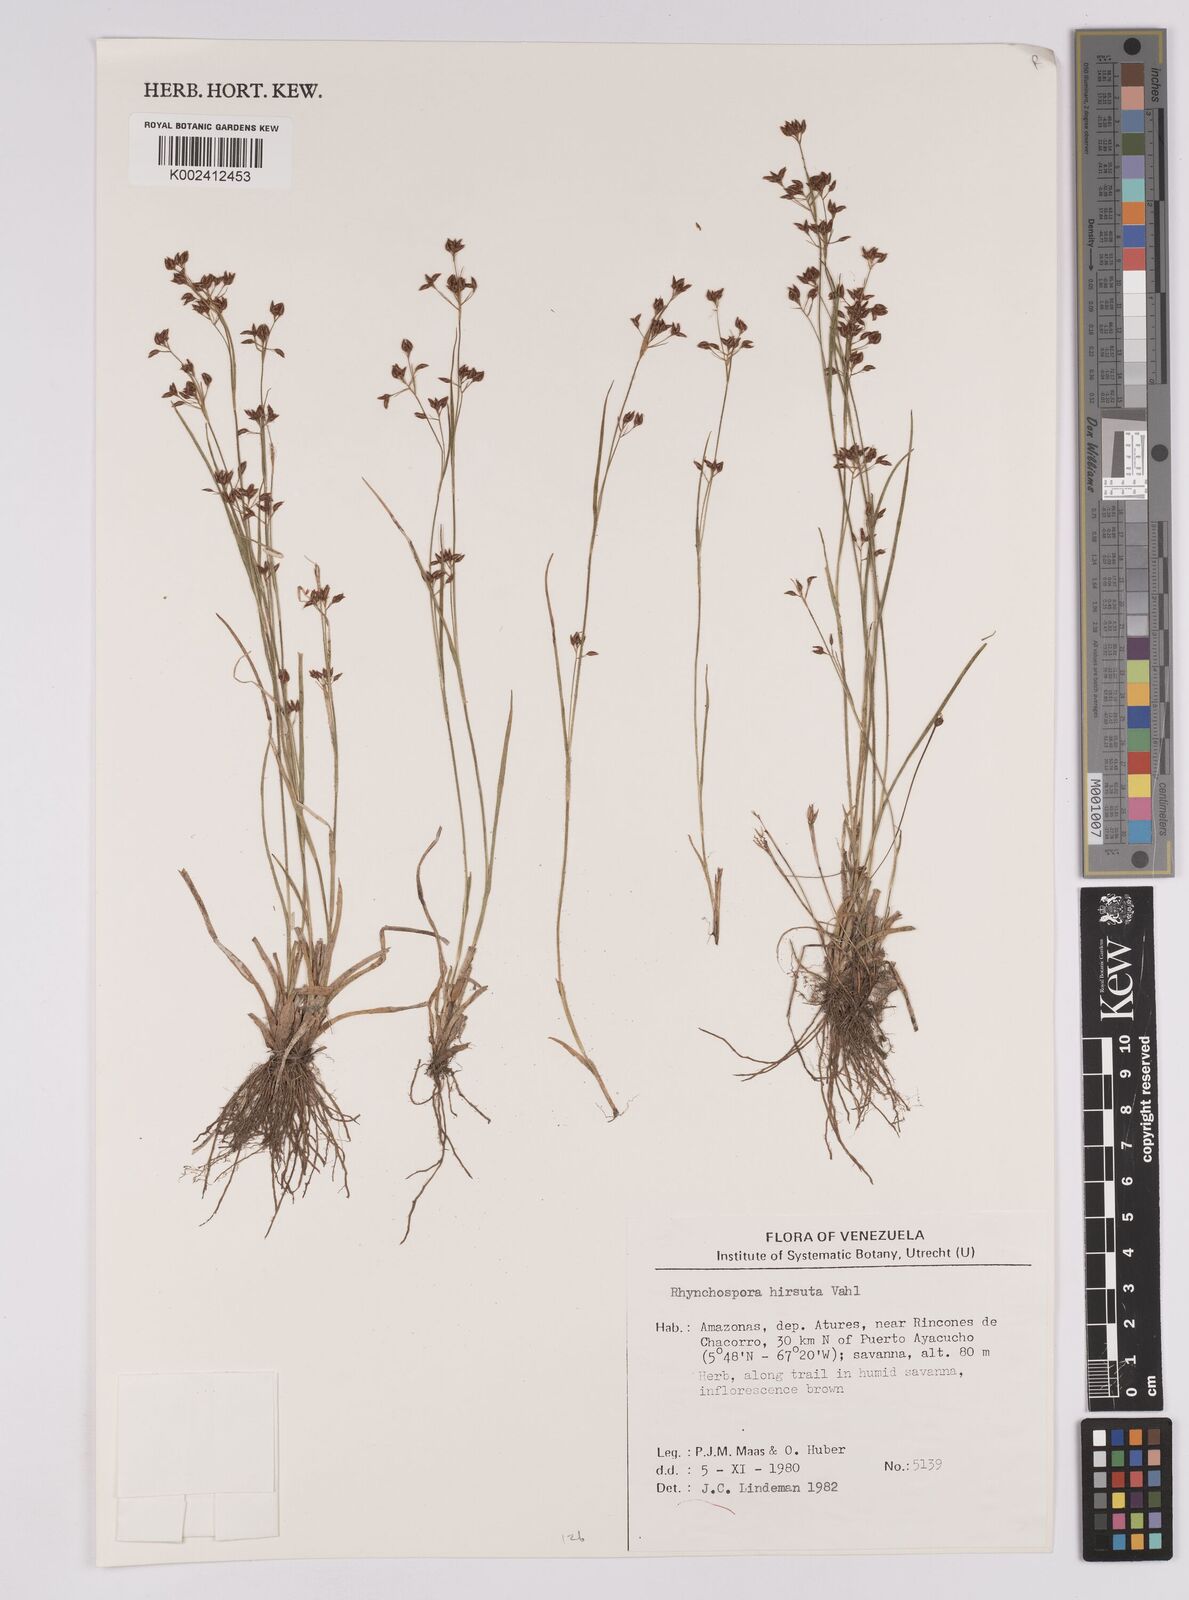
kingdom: Plantae
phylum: Tracheophyta
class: Liliopsida
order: Poales
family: Cyperaceae
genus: Rhynchospora
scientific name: Rhynchospora hirsuta
